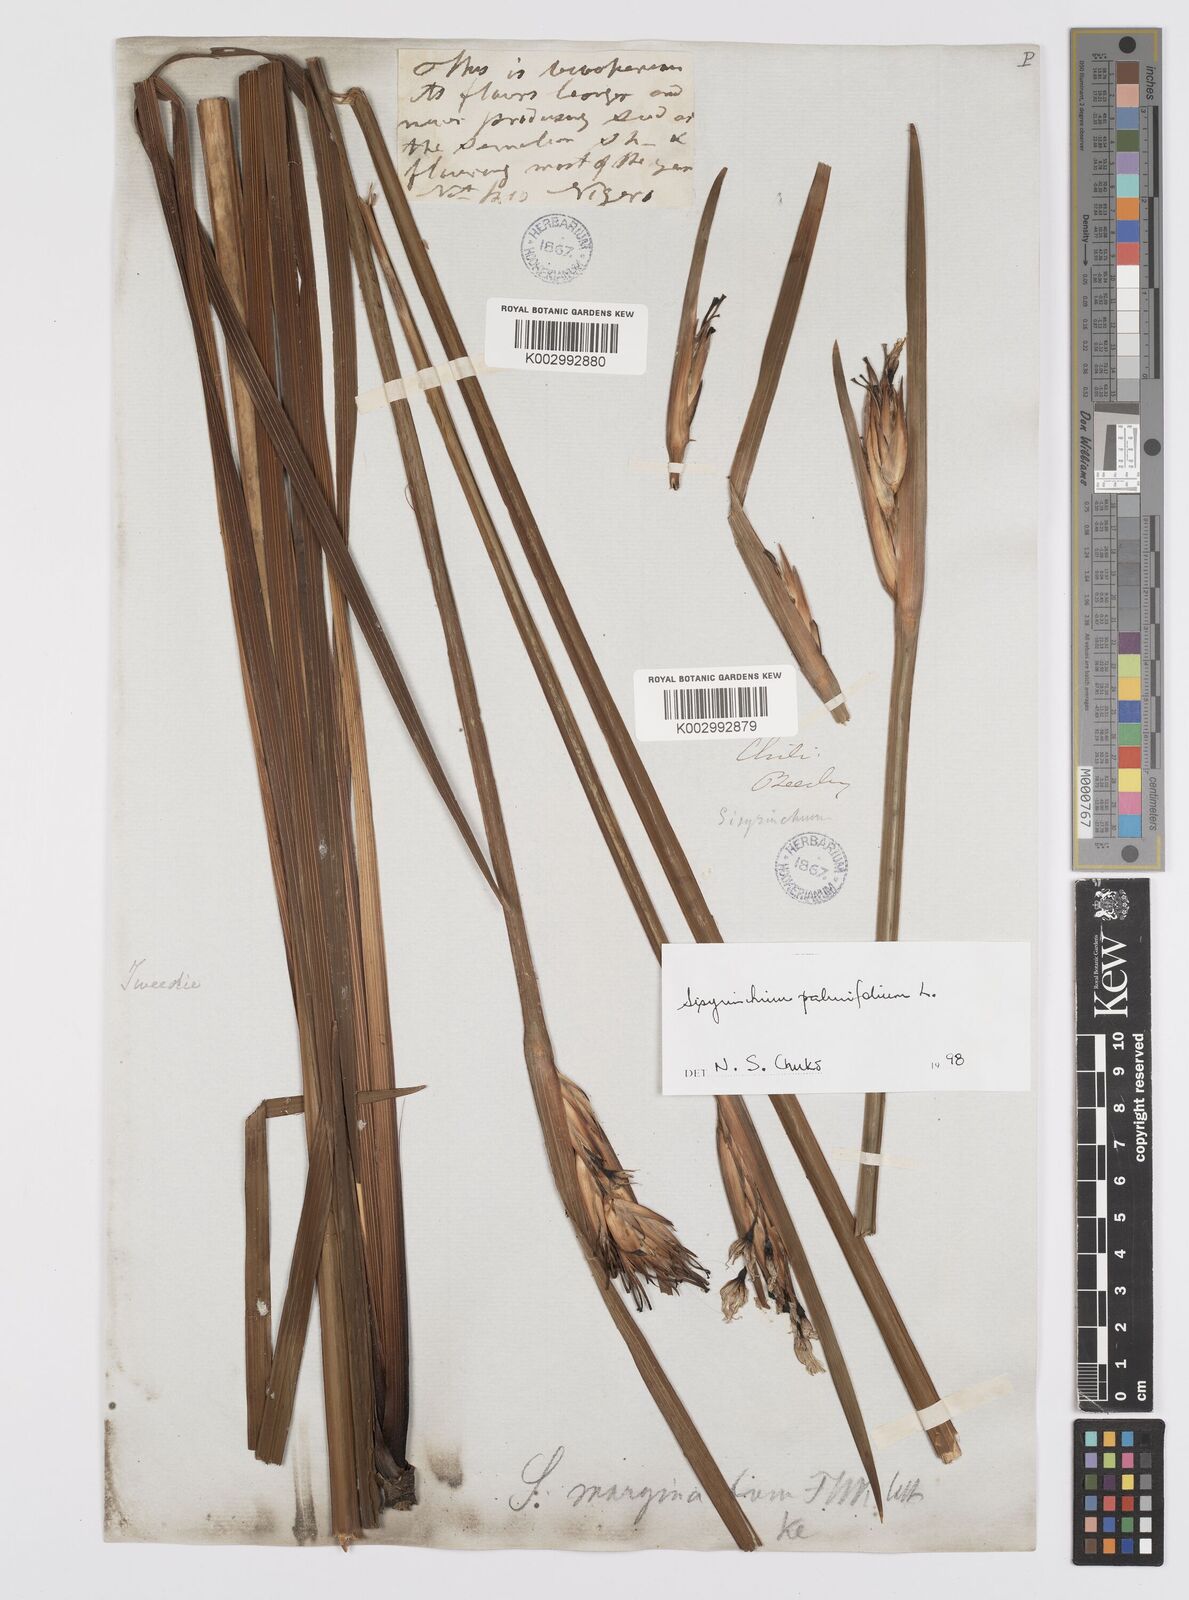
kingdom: Plantae
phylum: Tracheophyta
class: Liliopsida
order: Asparagales
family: Iridaceae
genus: Sisyrinchium
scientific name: Sisyrinchium palmifolium
